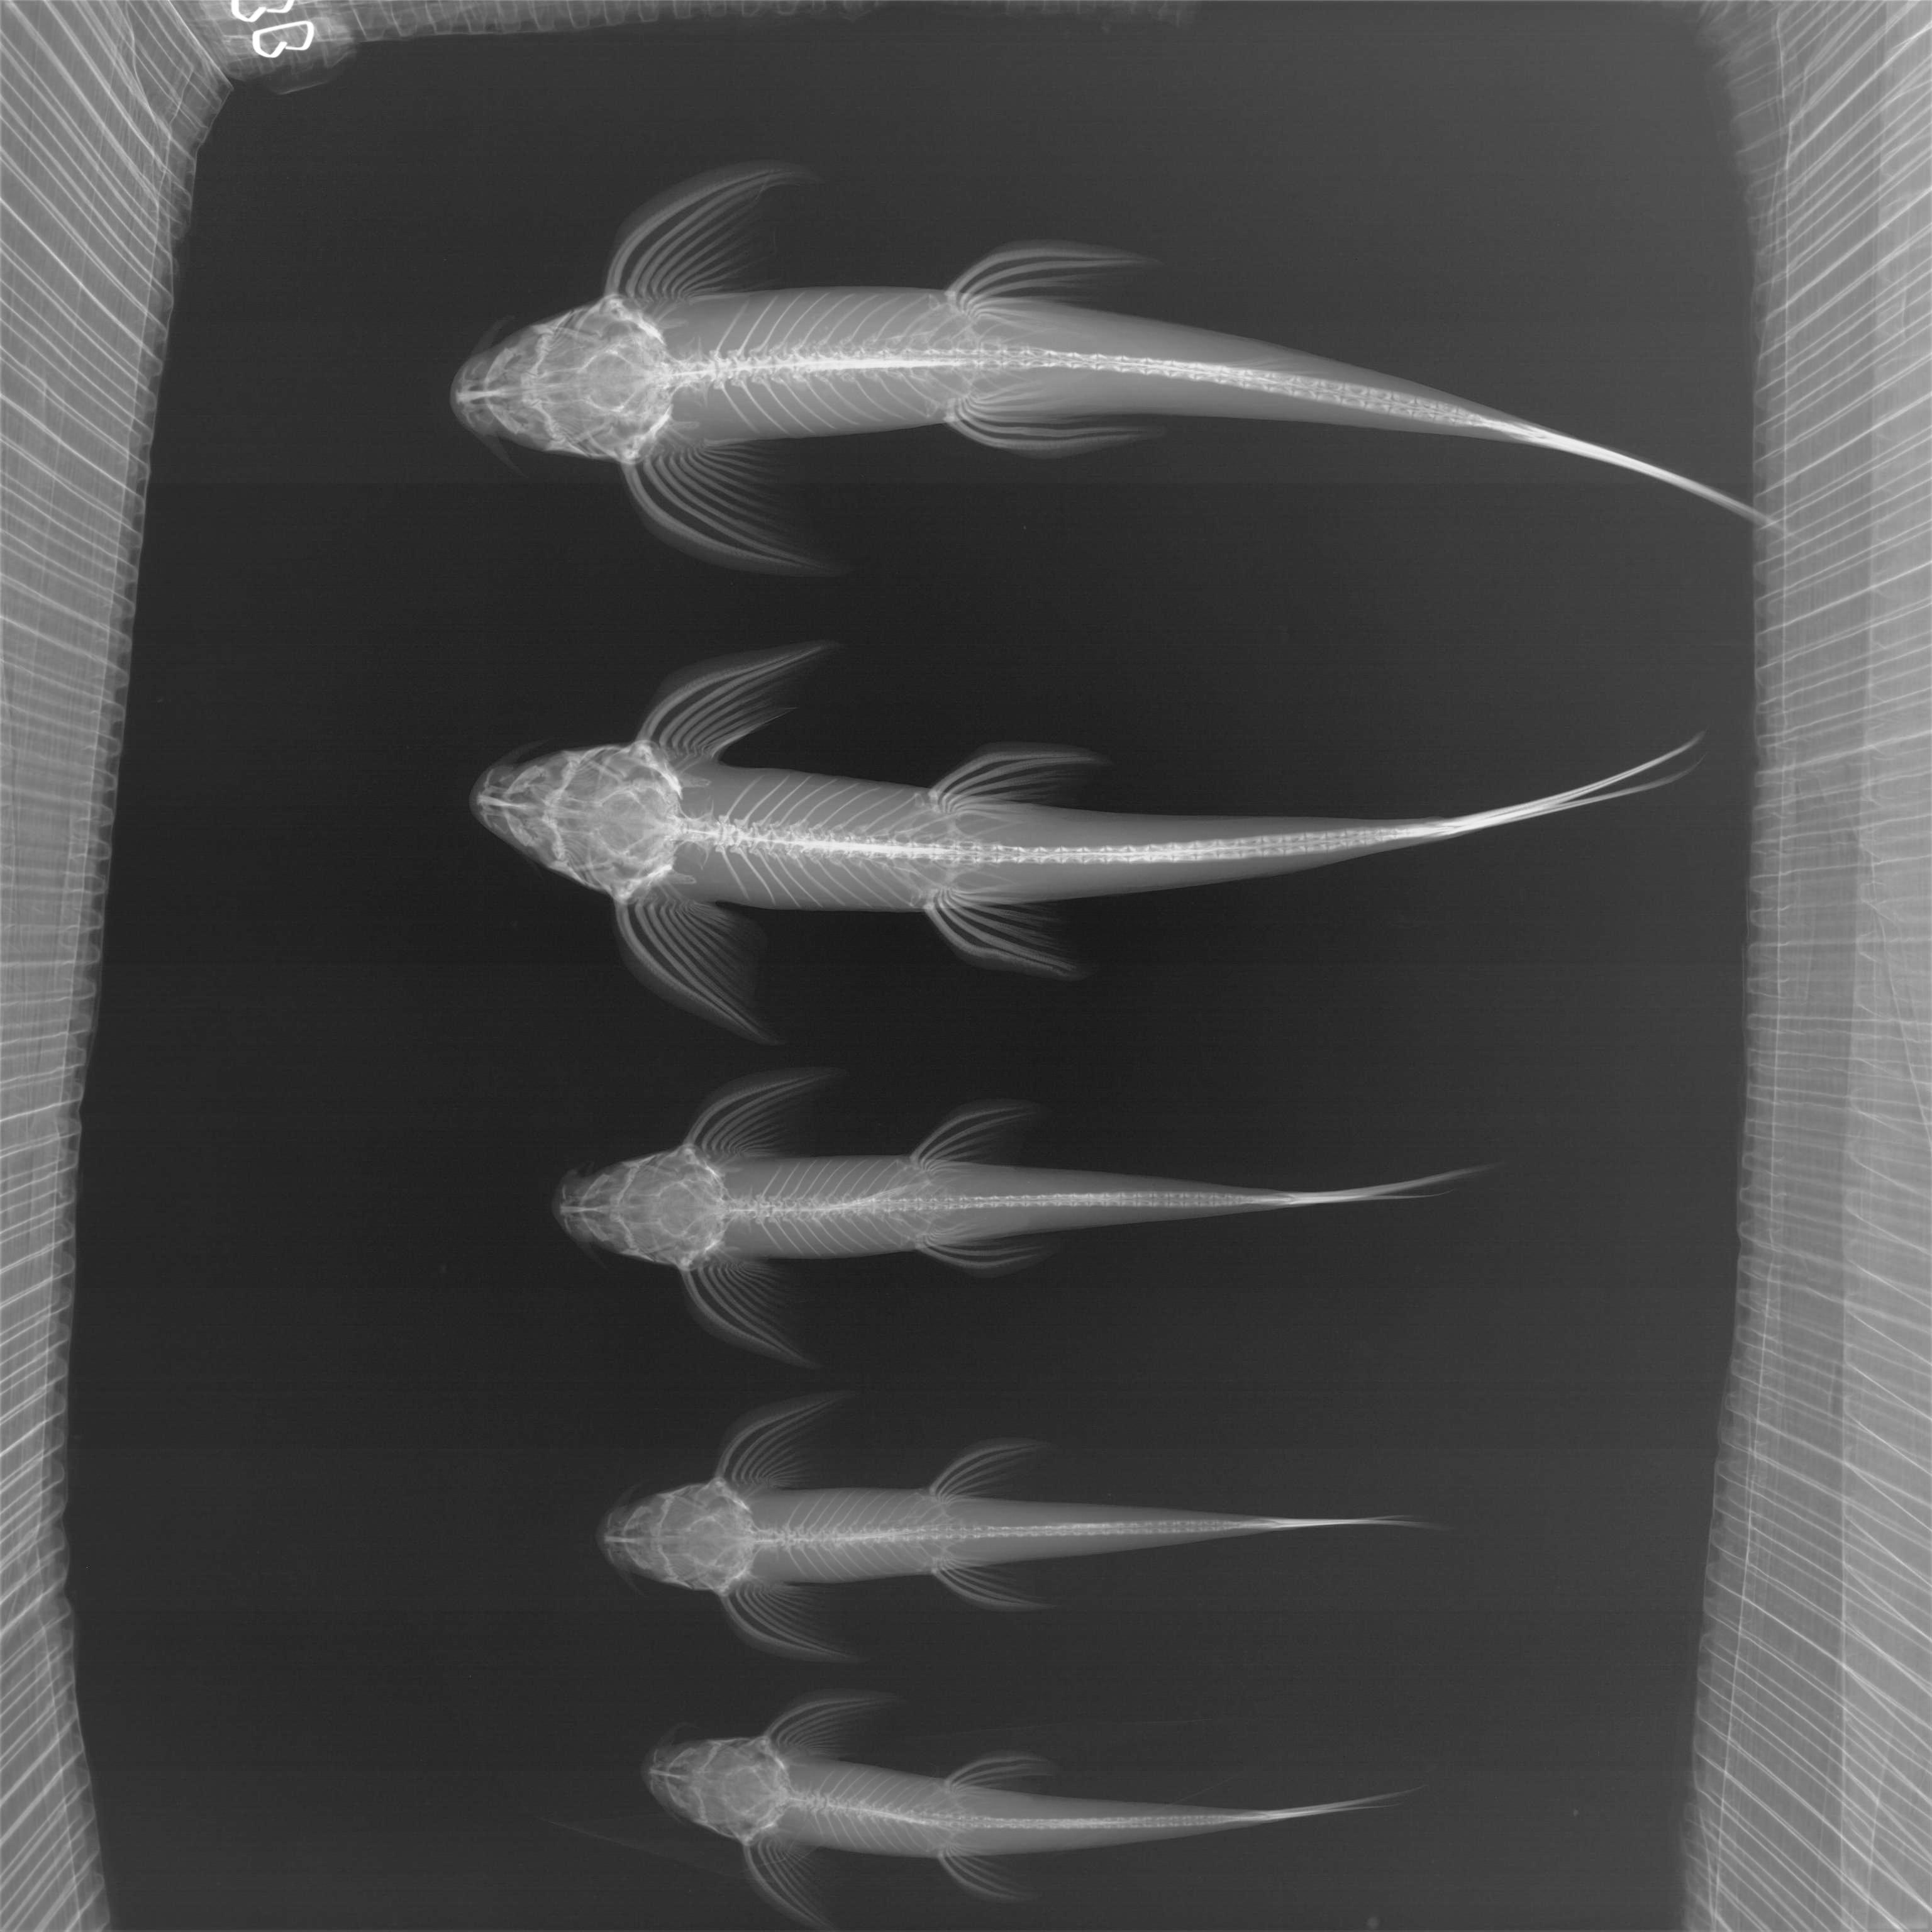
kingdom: Animalia
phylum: Chordata
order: Siluriformes
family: Amphiliidae
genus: Congoglanis
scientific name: Congoglanis alula
